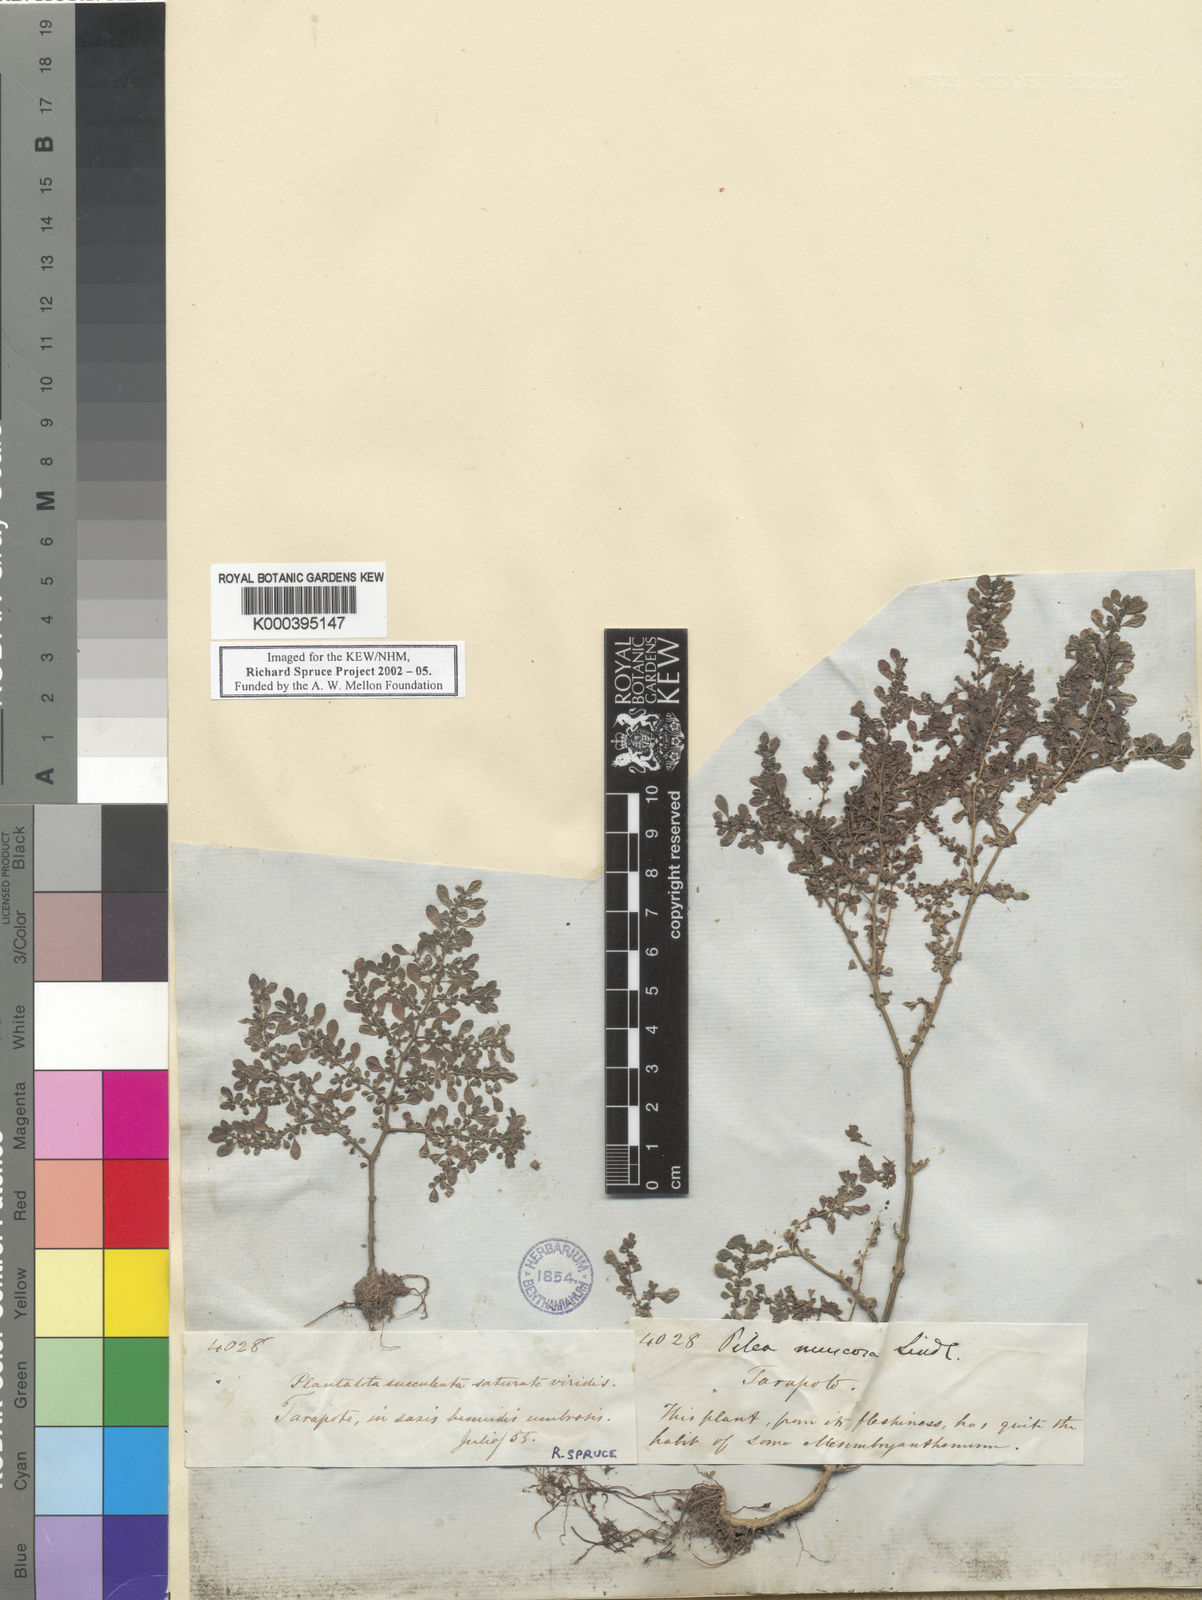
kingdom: Plantae
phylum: Tracheophyta
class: Magnoliopsida
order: Rosales
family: Urticaceae
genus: Pilea
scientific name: Pilea microphylla
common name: Artillery-plant
